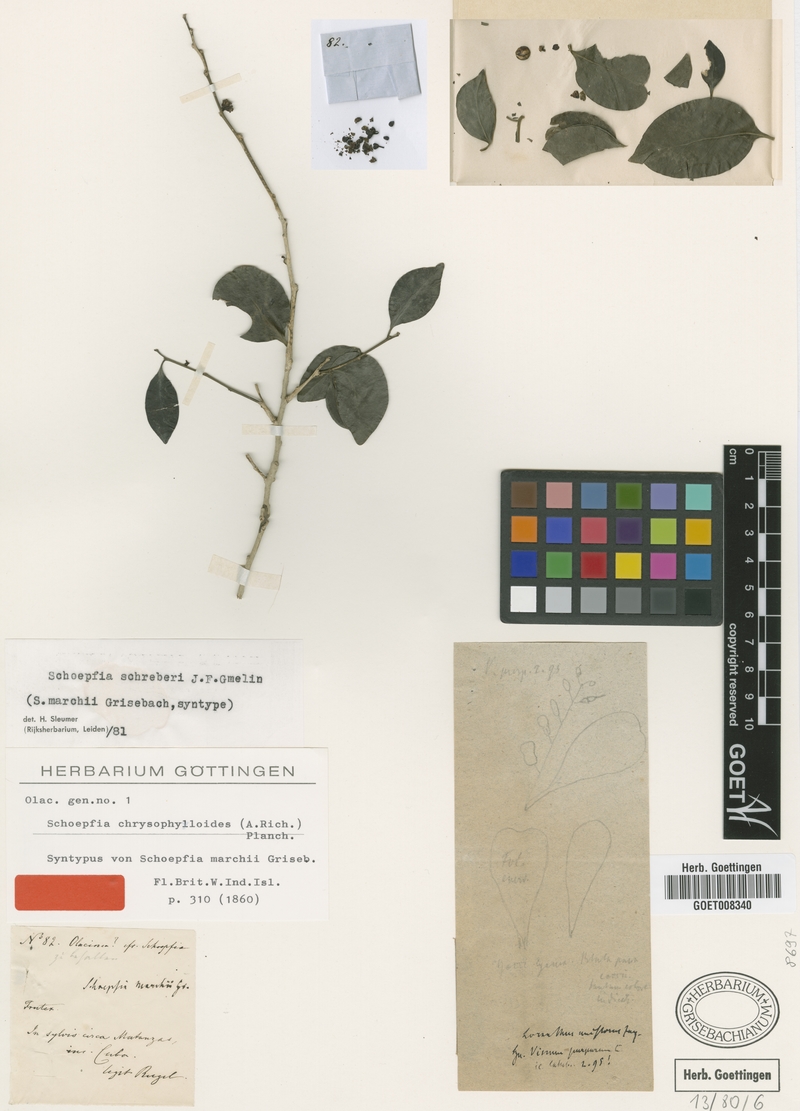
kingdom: Plantae
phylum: Tracheophyta
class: Magnoliopsida
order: Santalales
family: Schoepfiaceae
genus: Schoepfia
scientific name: Schoepfia schreberi
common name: Gulf graytwig
